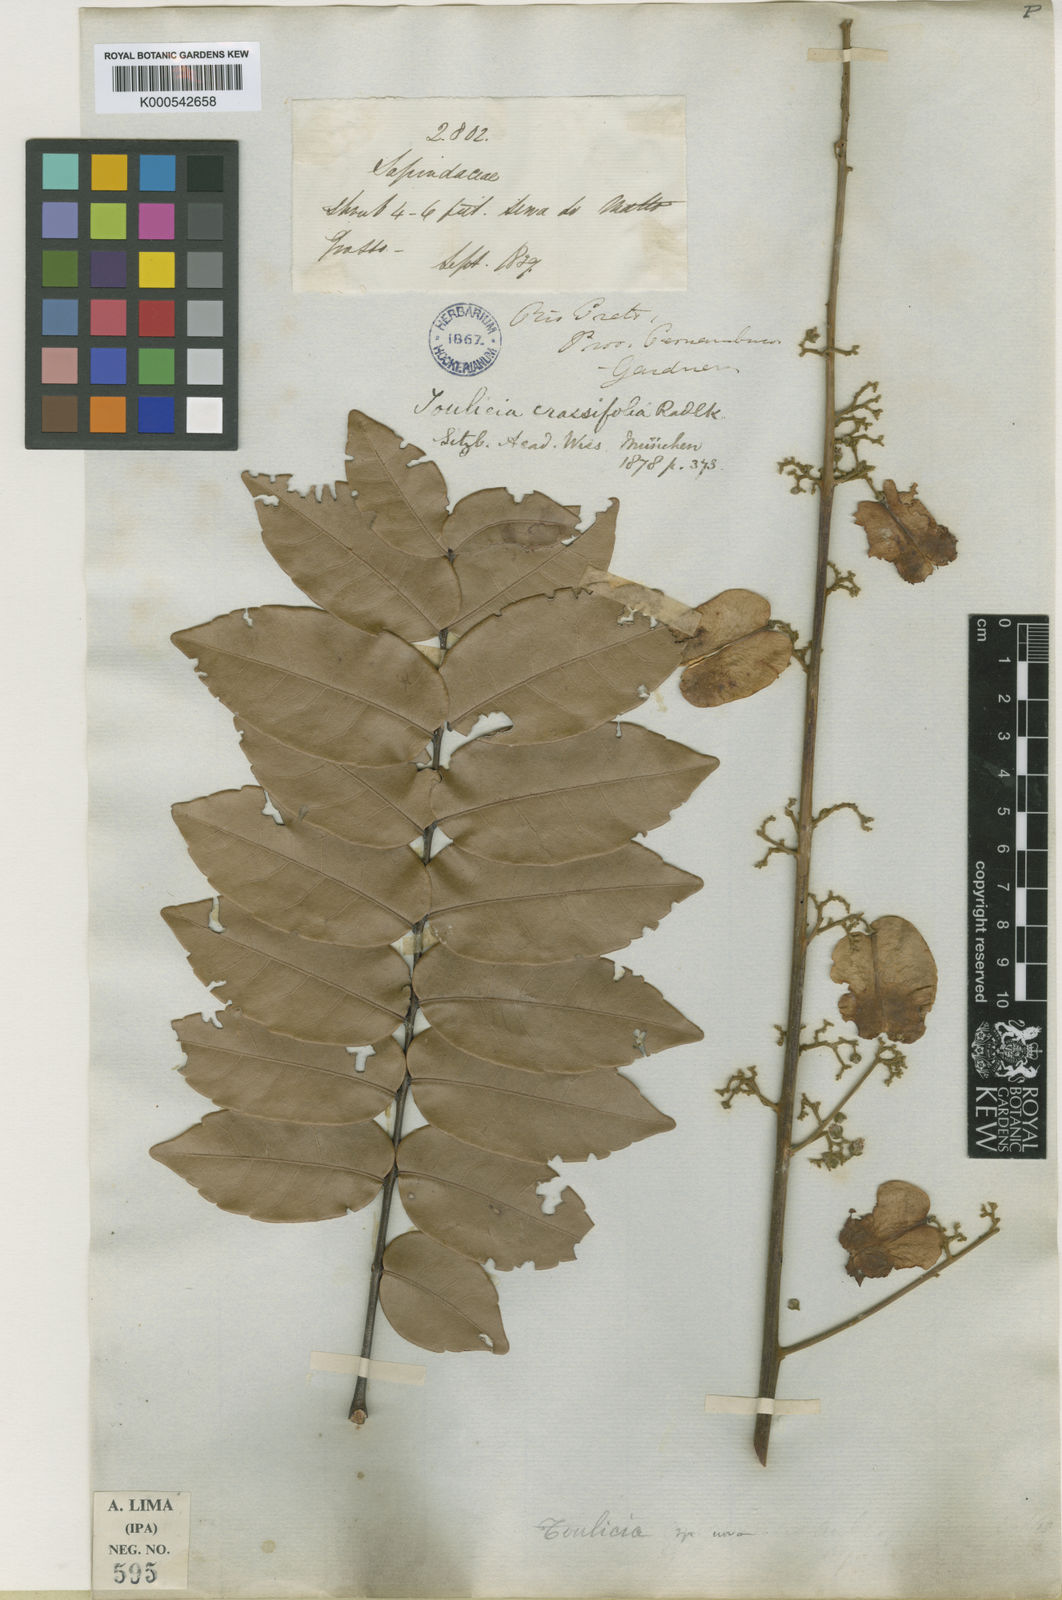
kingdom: Plantae
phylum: Tracheophyta
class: Magnoliopsida
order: Sapindales
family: Sapindaceae
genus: Toulicia
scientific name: Toulicia crassifolia
